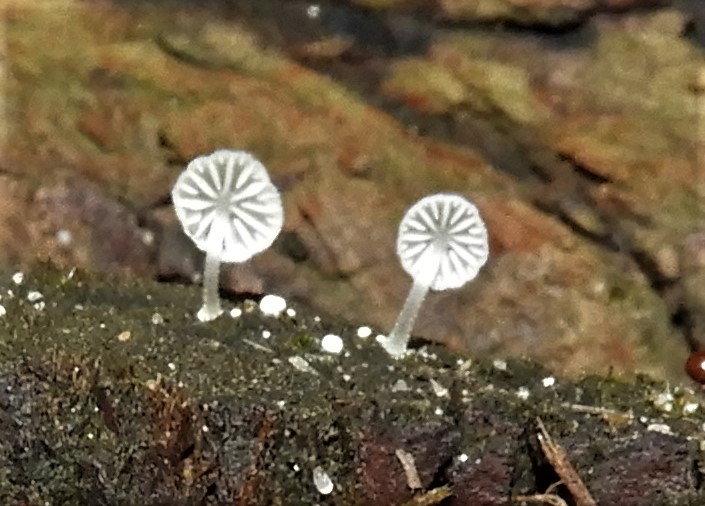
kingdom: Fungi
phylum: Basidiomycota
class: Agaricomycetes
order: Agaricales
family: Mycenaceae
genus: Mycena
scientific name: Mycena tenerrima
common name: pudret huesvamp
